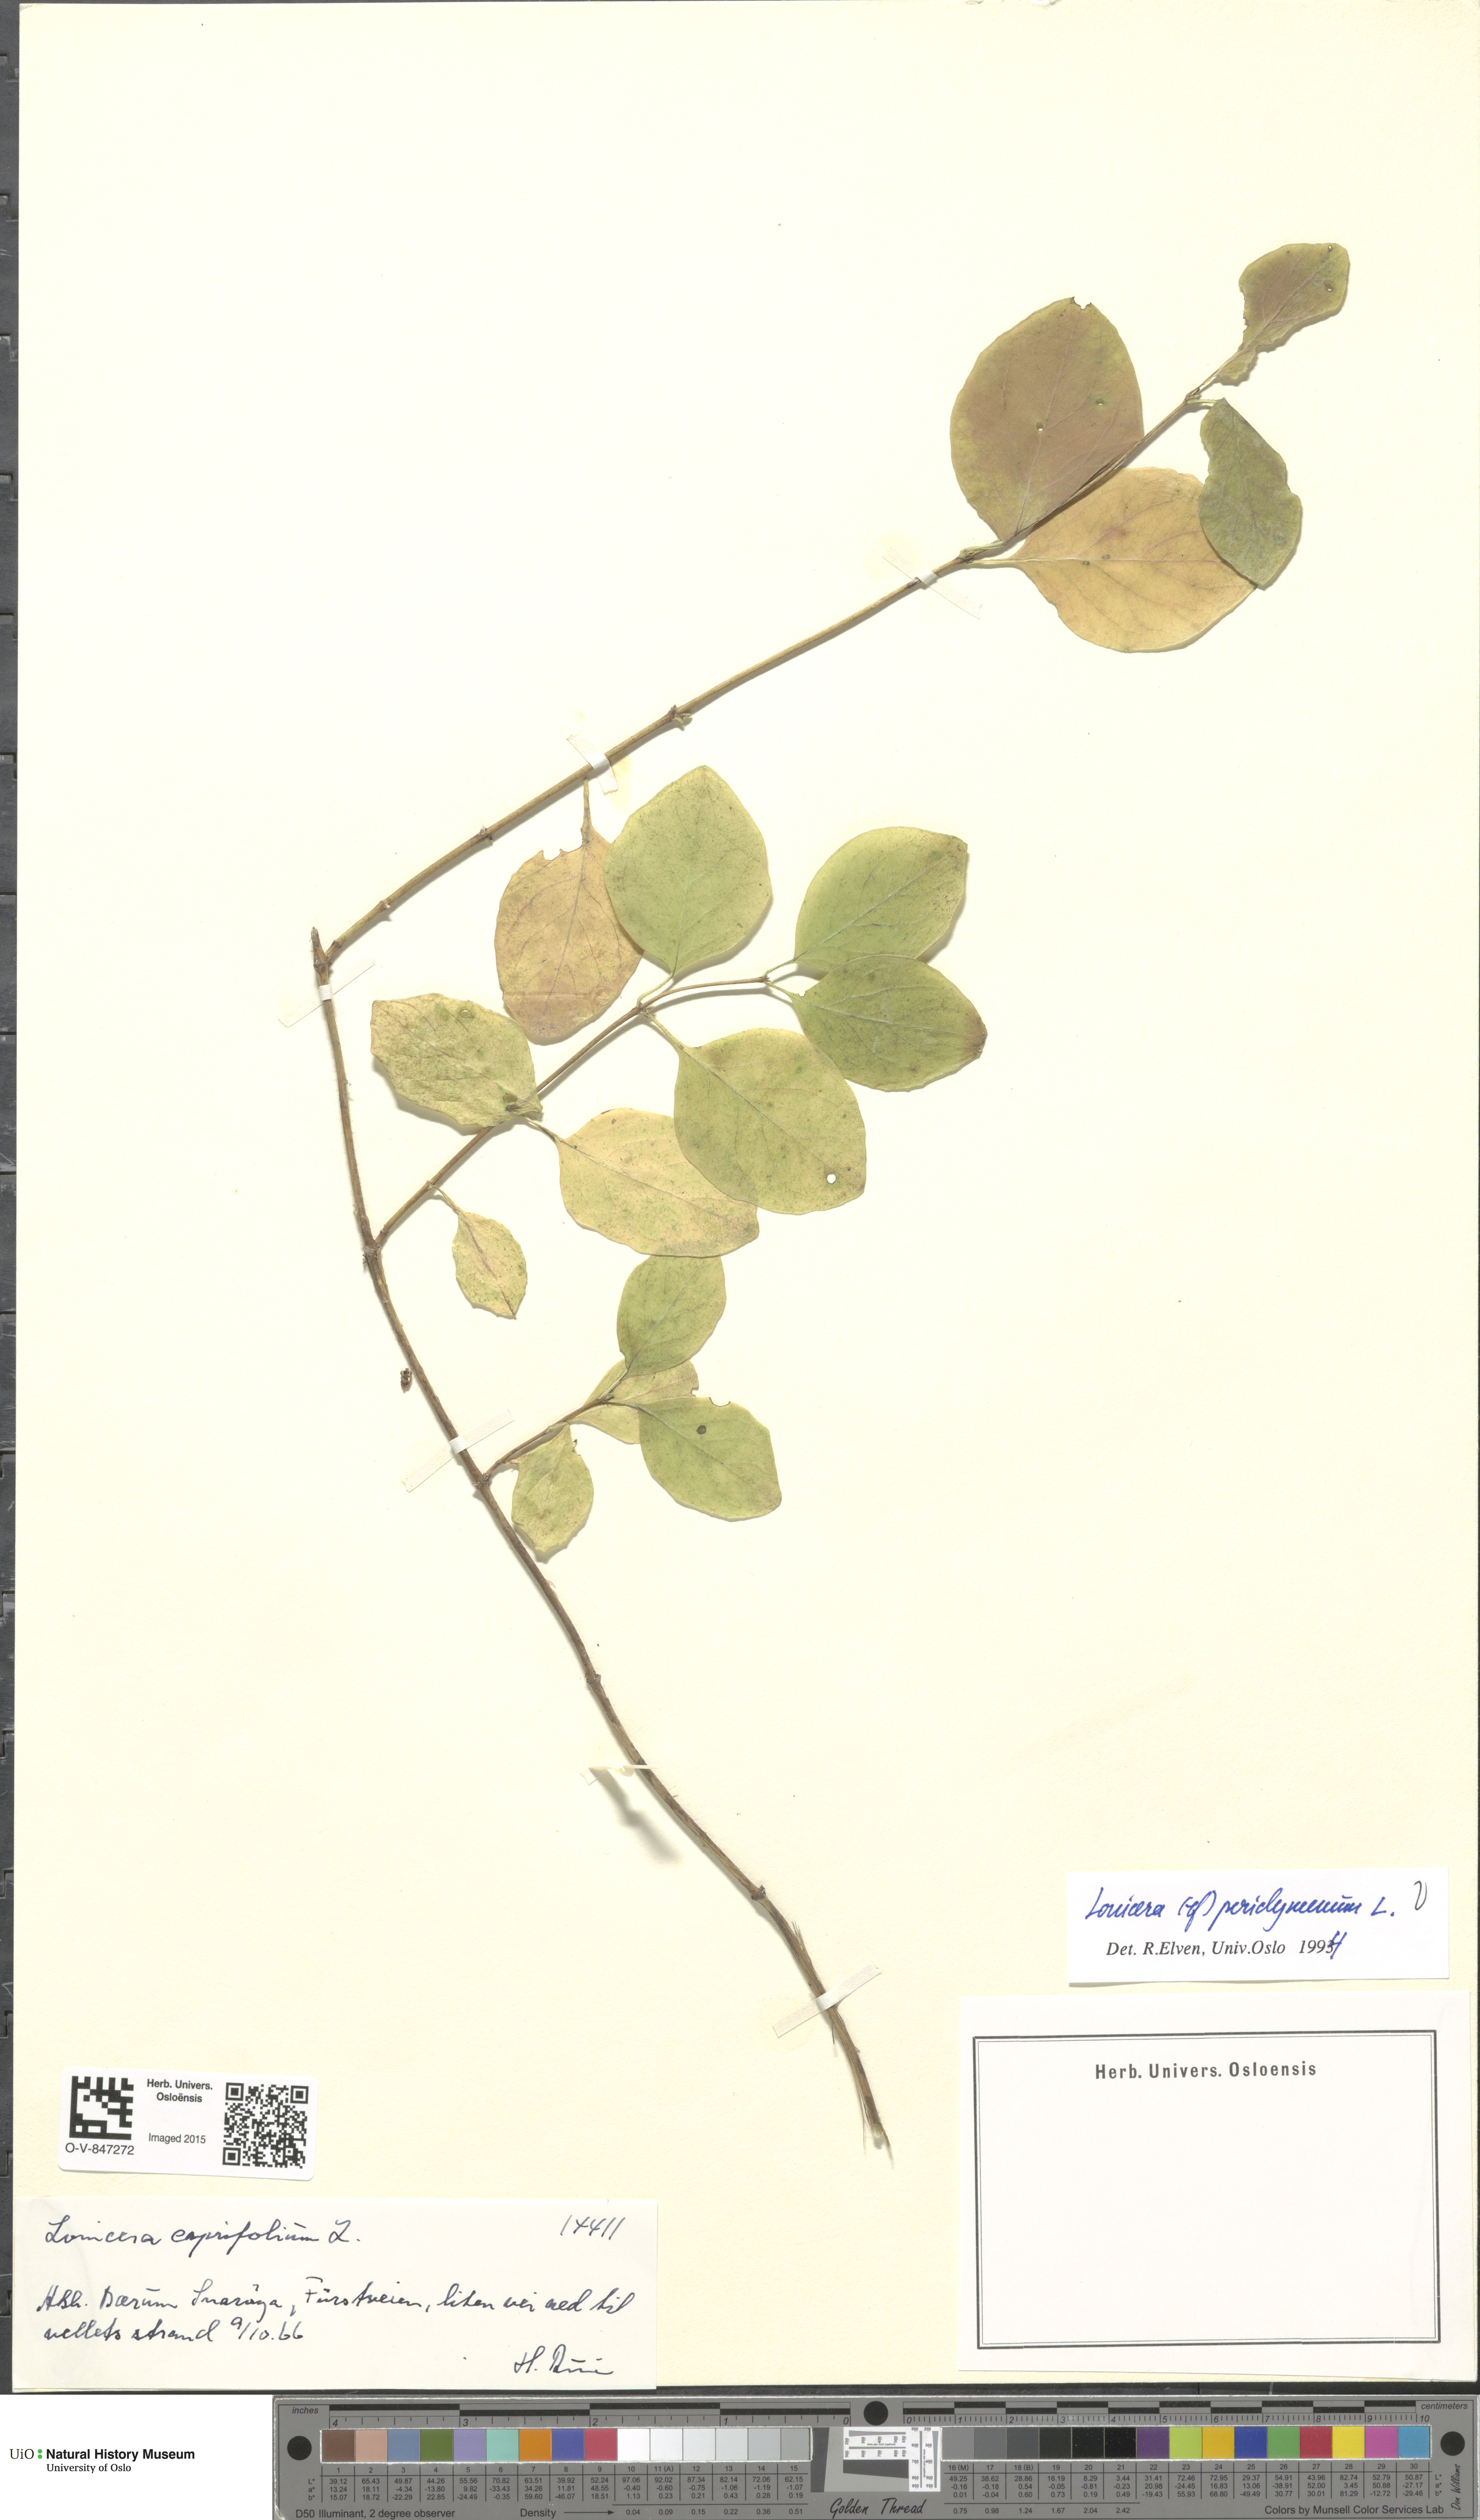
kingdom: Plantae
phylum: Tracheophyta
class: Magnoliopsida
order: Dipsacales
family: Caprifoliaceae
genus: Lonicera
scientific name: Lonicera periclymenum
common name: European honeysuckle
